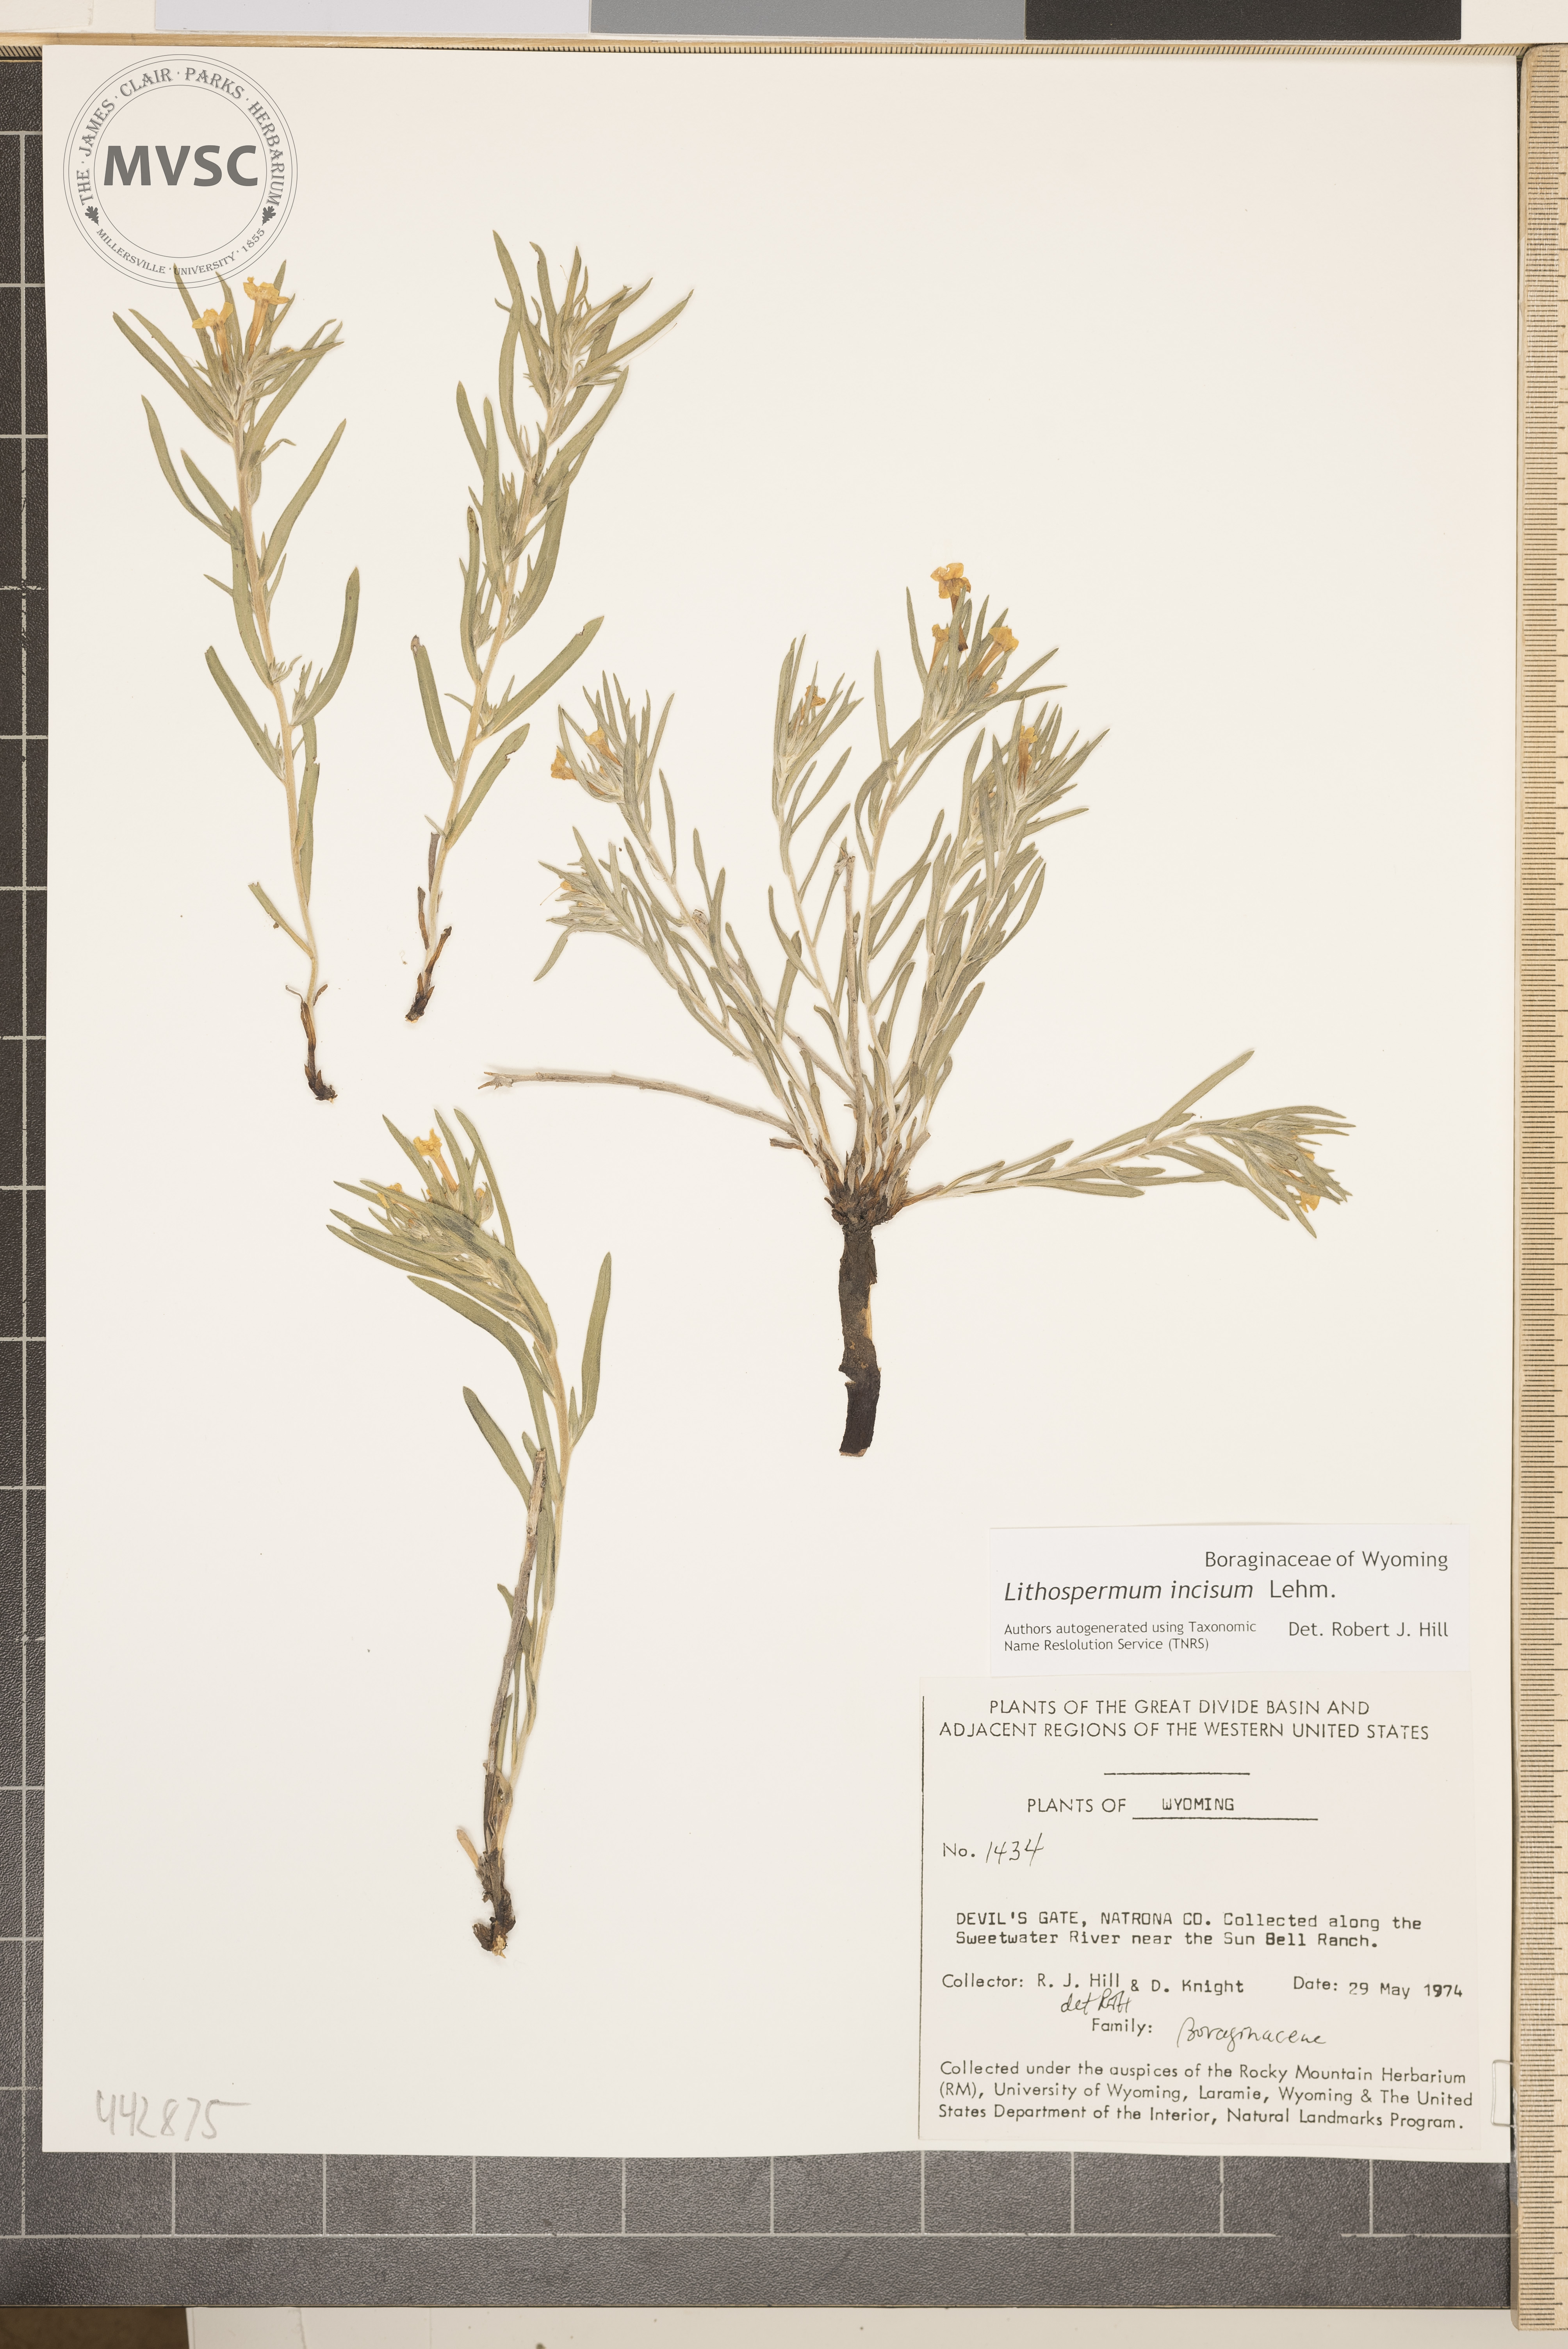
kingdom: Plantae
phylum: Tracheophyta
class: Magnoliopsida
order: Boraginales
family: Boraginaceae
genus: Lithospermum
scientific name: Lithospermum incisum
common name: Fringed gromwell
